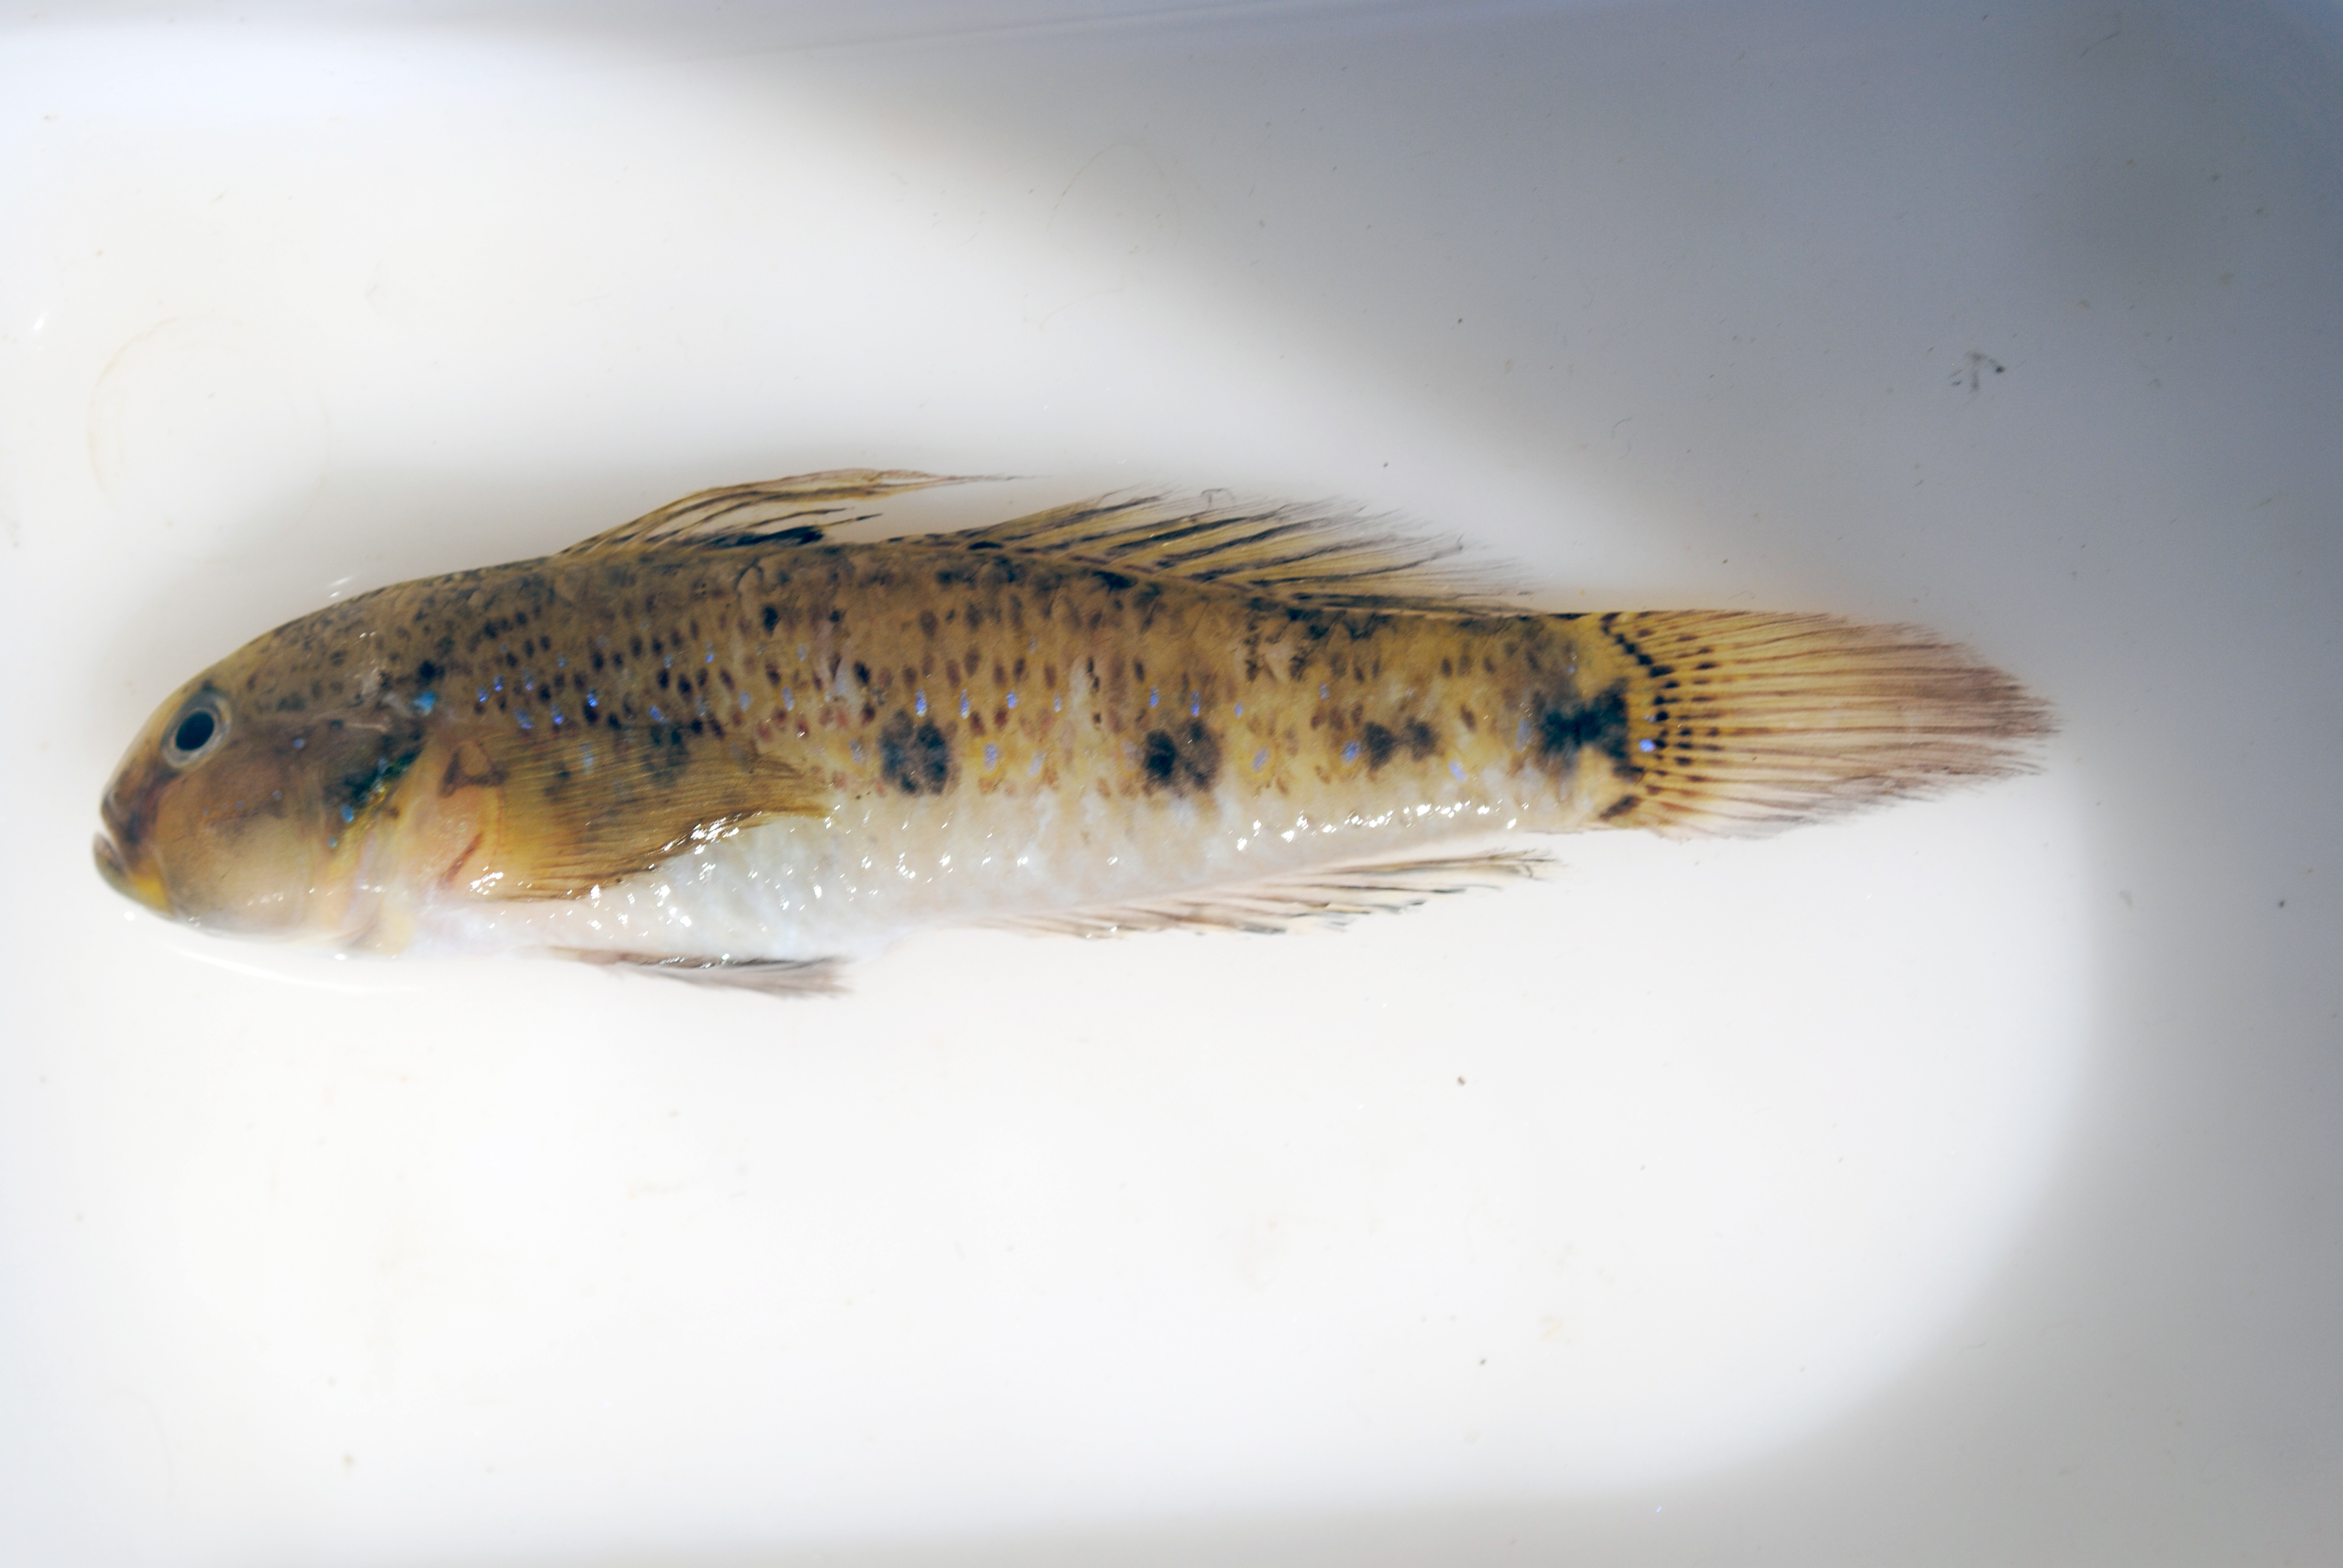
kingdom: Animalia
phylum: Chordata
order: Perciformes
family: Gobiidae
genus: Amoya
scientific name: Amoya signata
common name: Tusk goby
